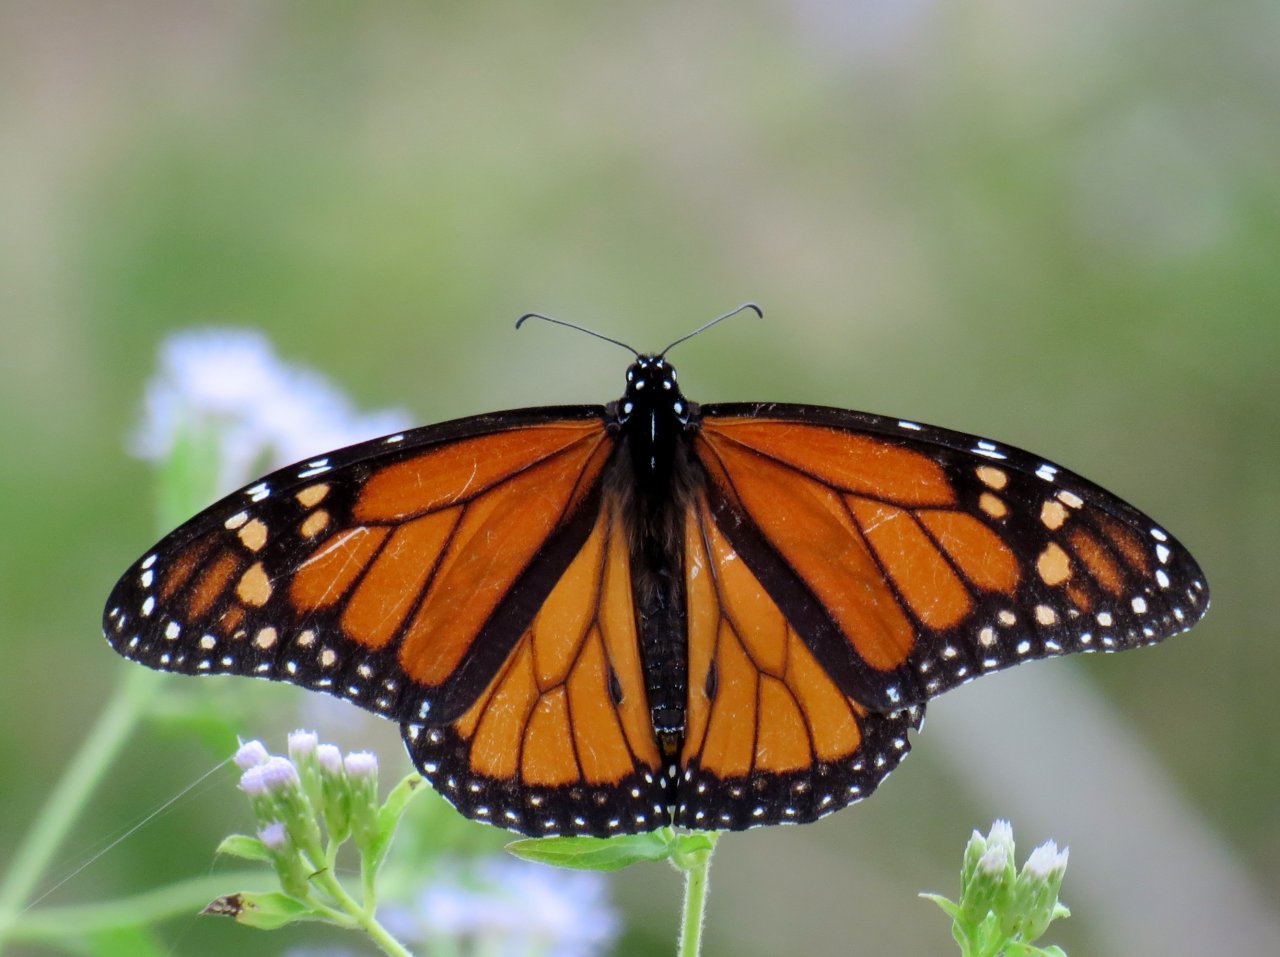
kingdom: Animalia
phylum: Arthropoda
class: Insecta
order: Lepidoptera
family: Nymphalidae
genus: Danaus
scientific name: Danaus plexippus
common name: Monarch
